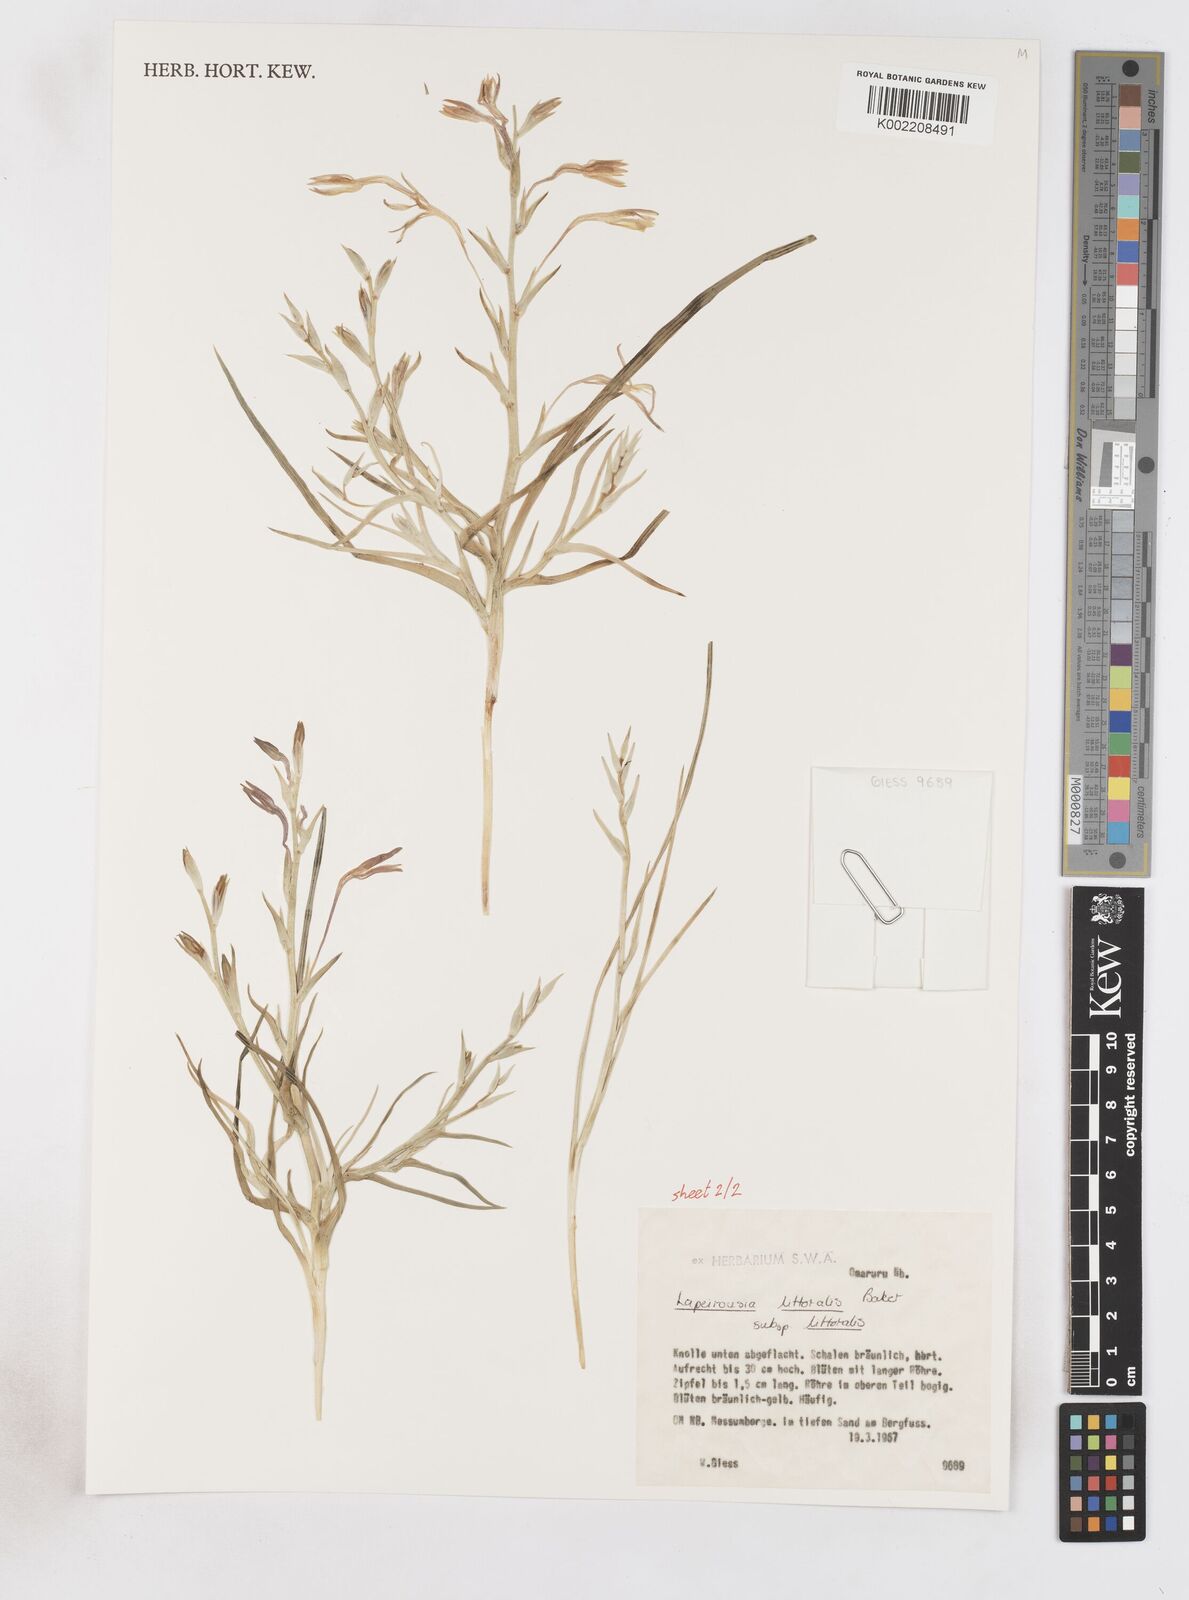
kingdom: Plantae
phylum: Tracheophyta
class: Liliopsida
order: Asparagales
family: Iridaceae
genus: Lapeirousia
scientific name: Lapeirousia littoralis
